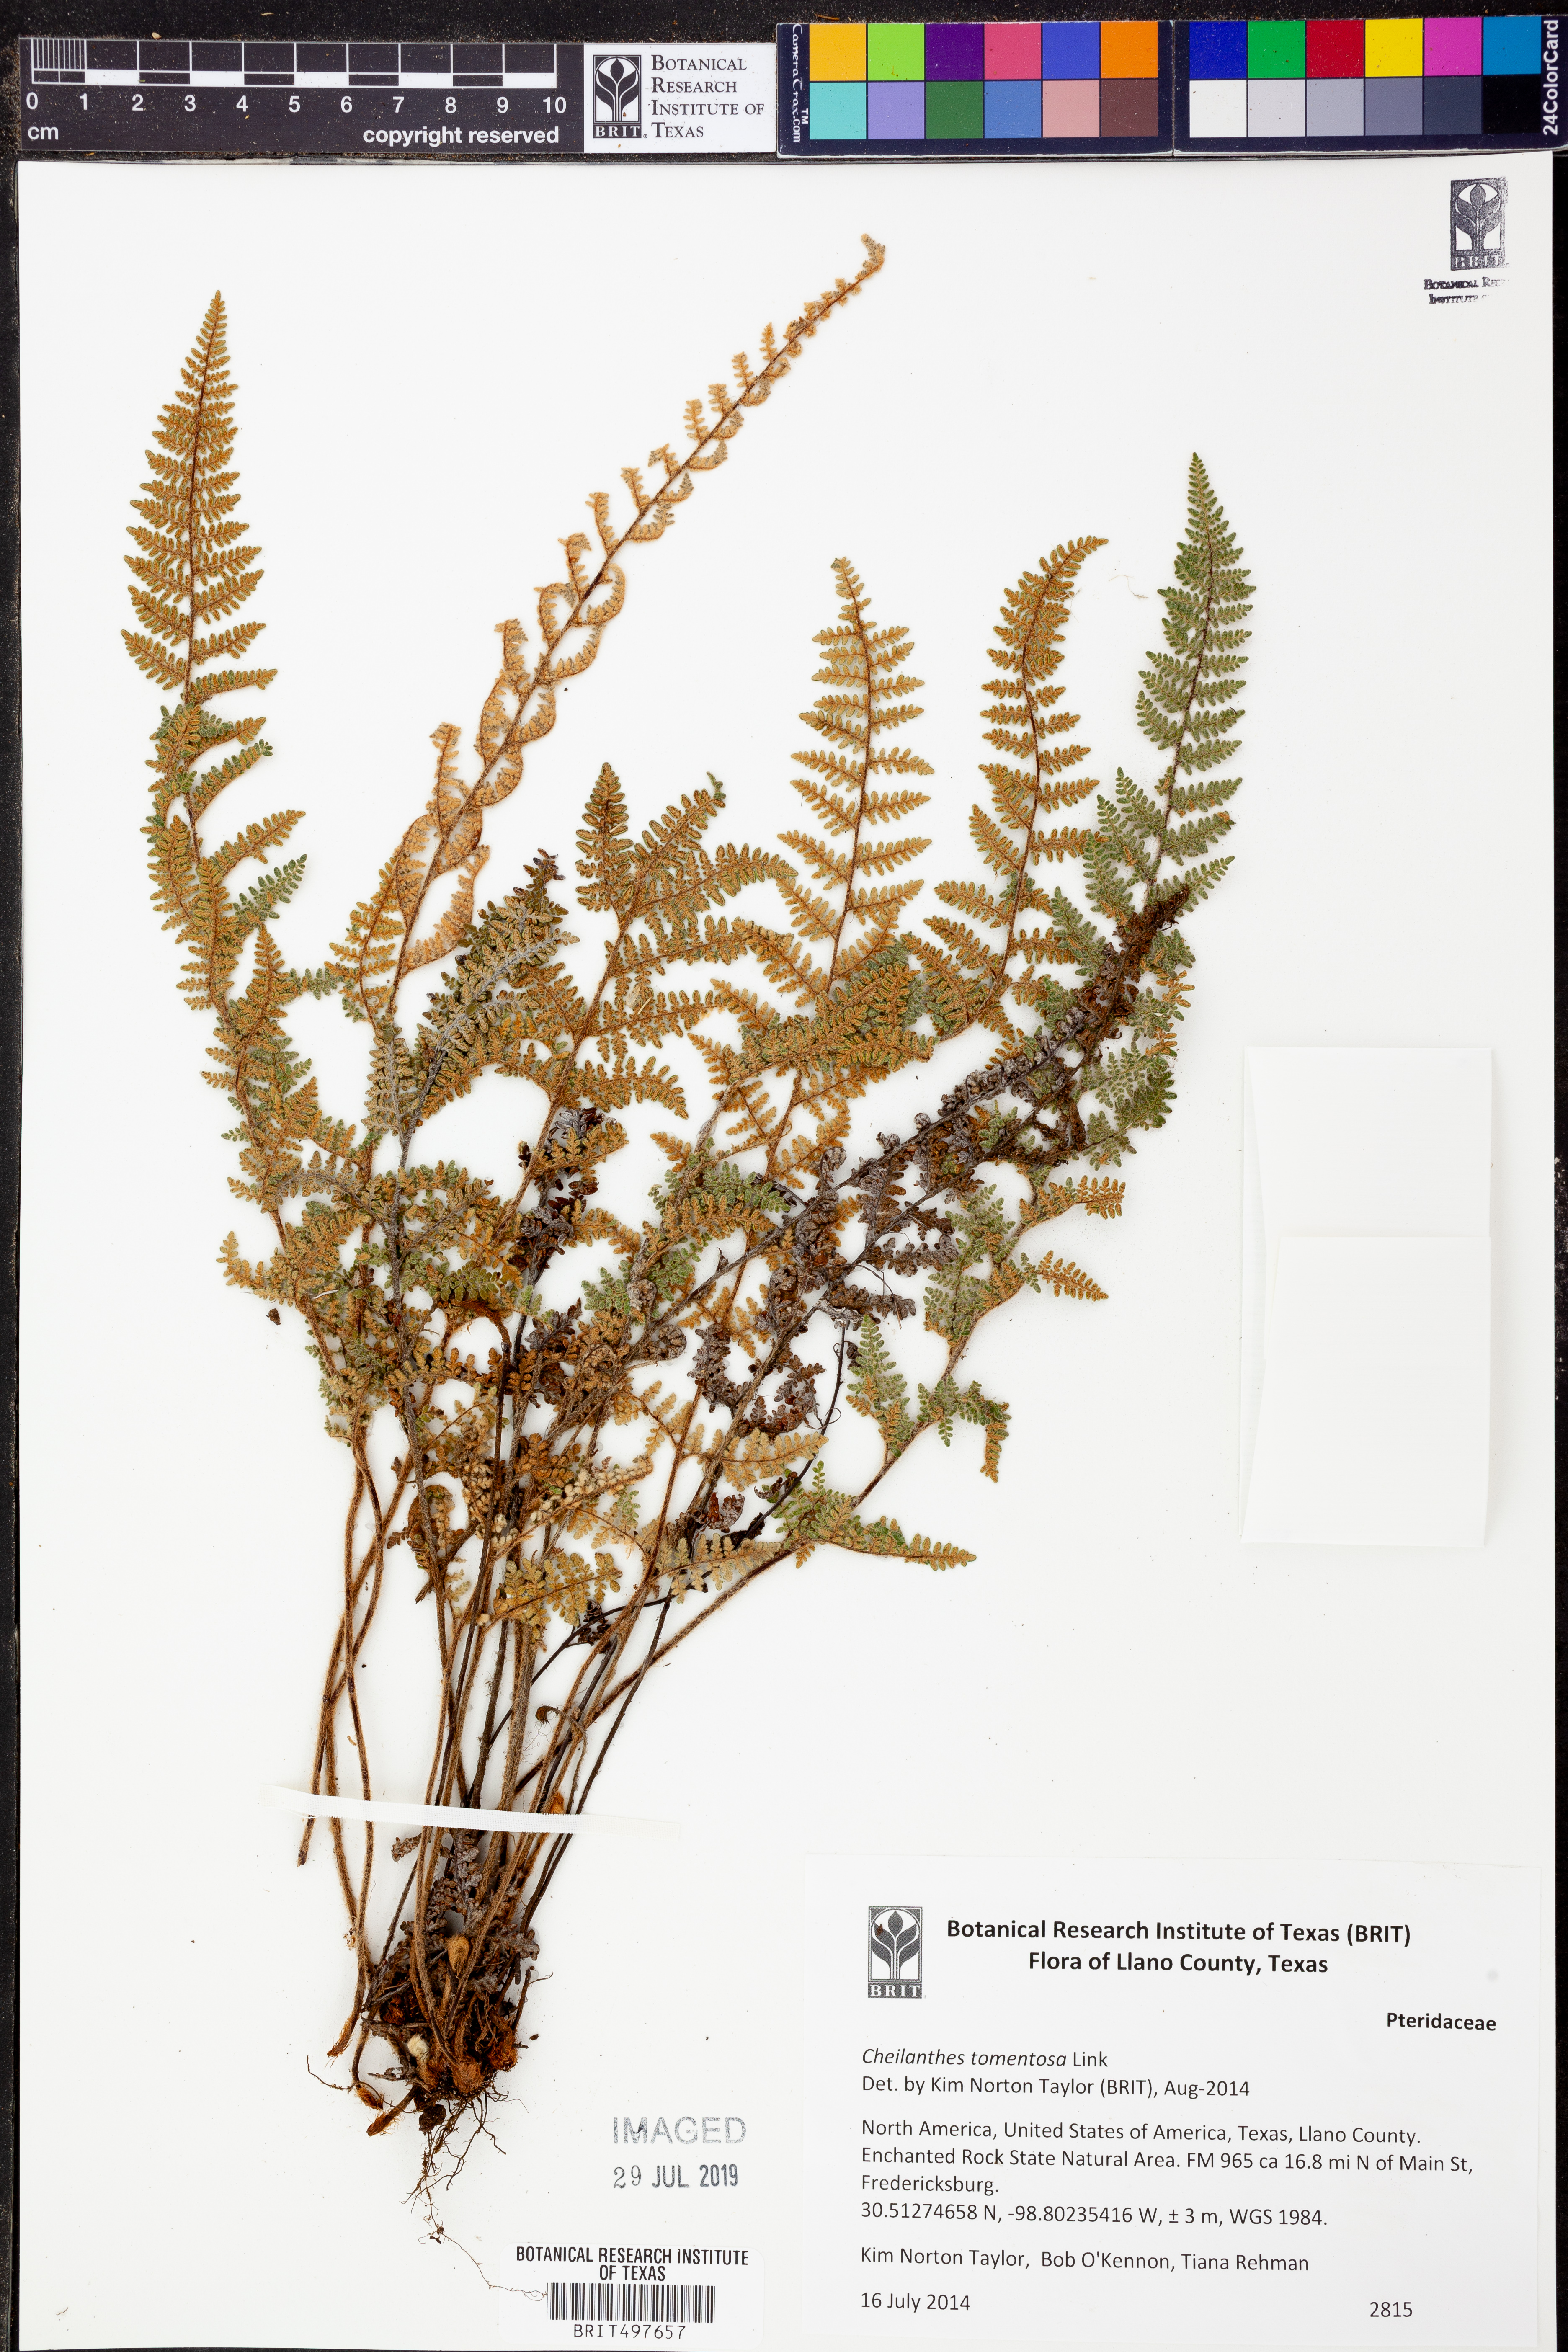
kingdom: Plantae
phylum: Tracheophyta
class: Polypodiopsida
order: Polypodiales
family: Pteridaceae
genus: Myriopteris
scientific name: Myriopteris tomentosa
